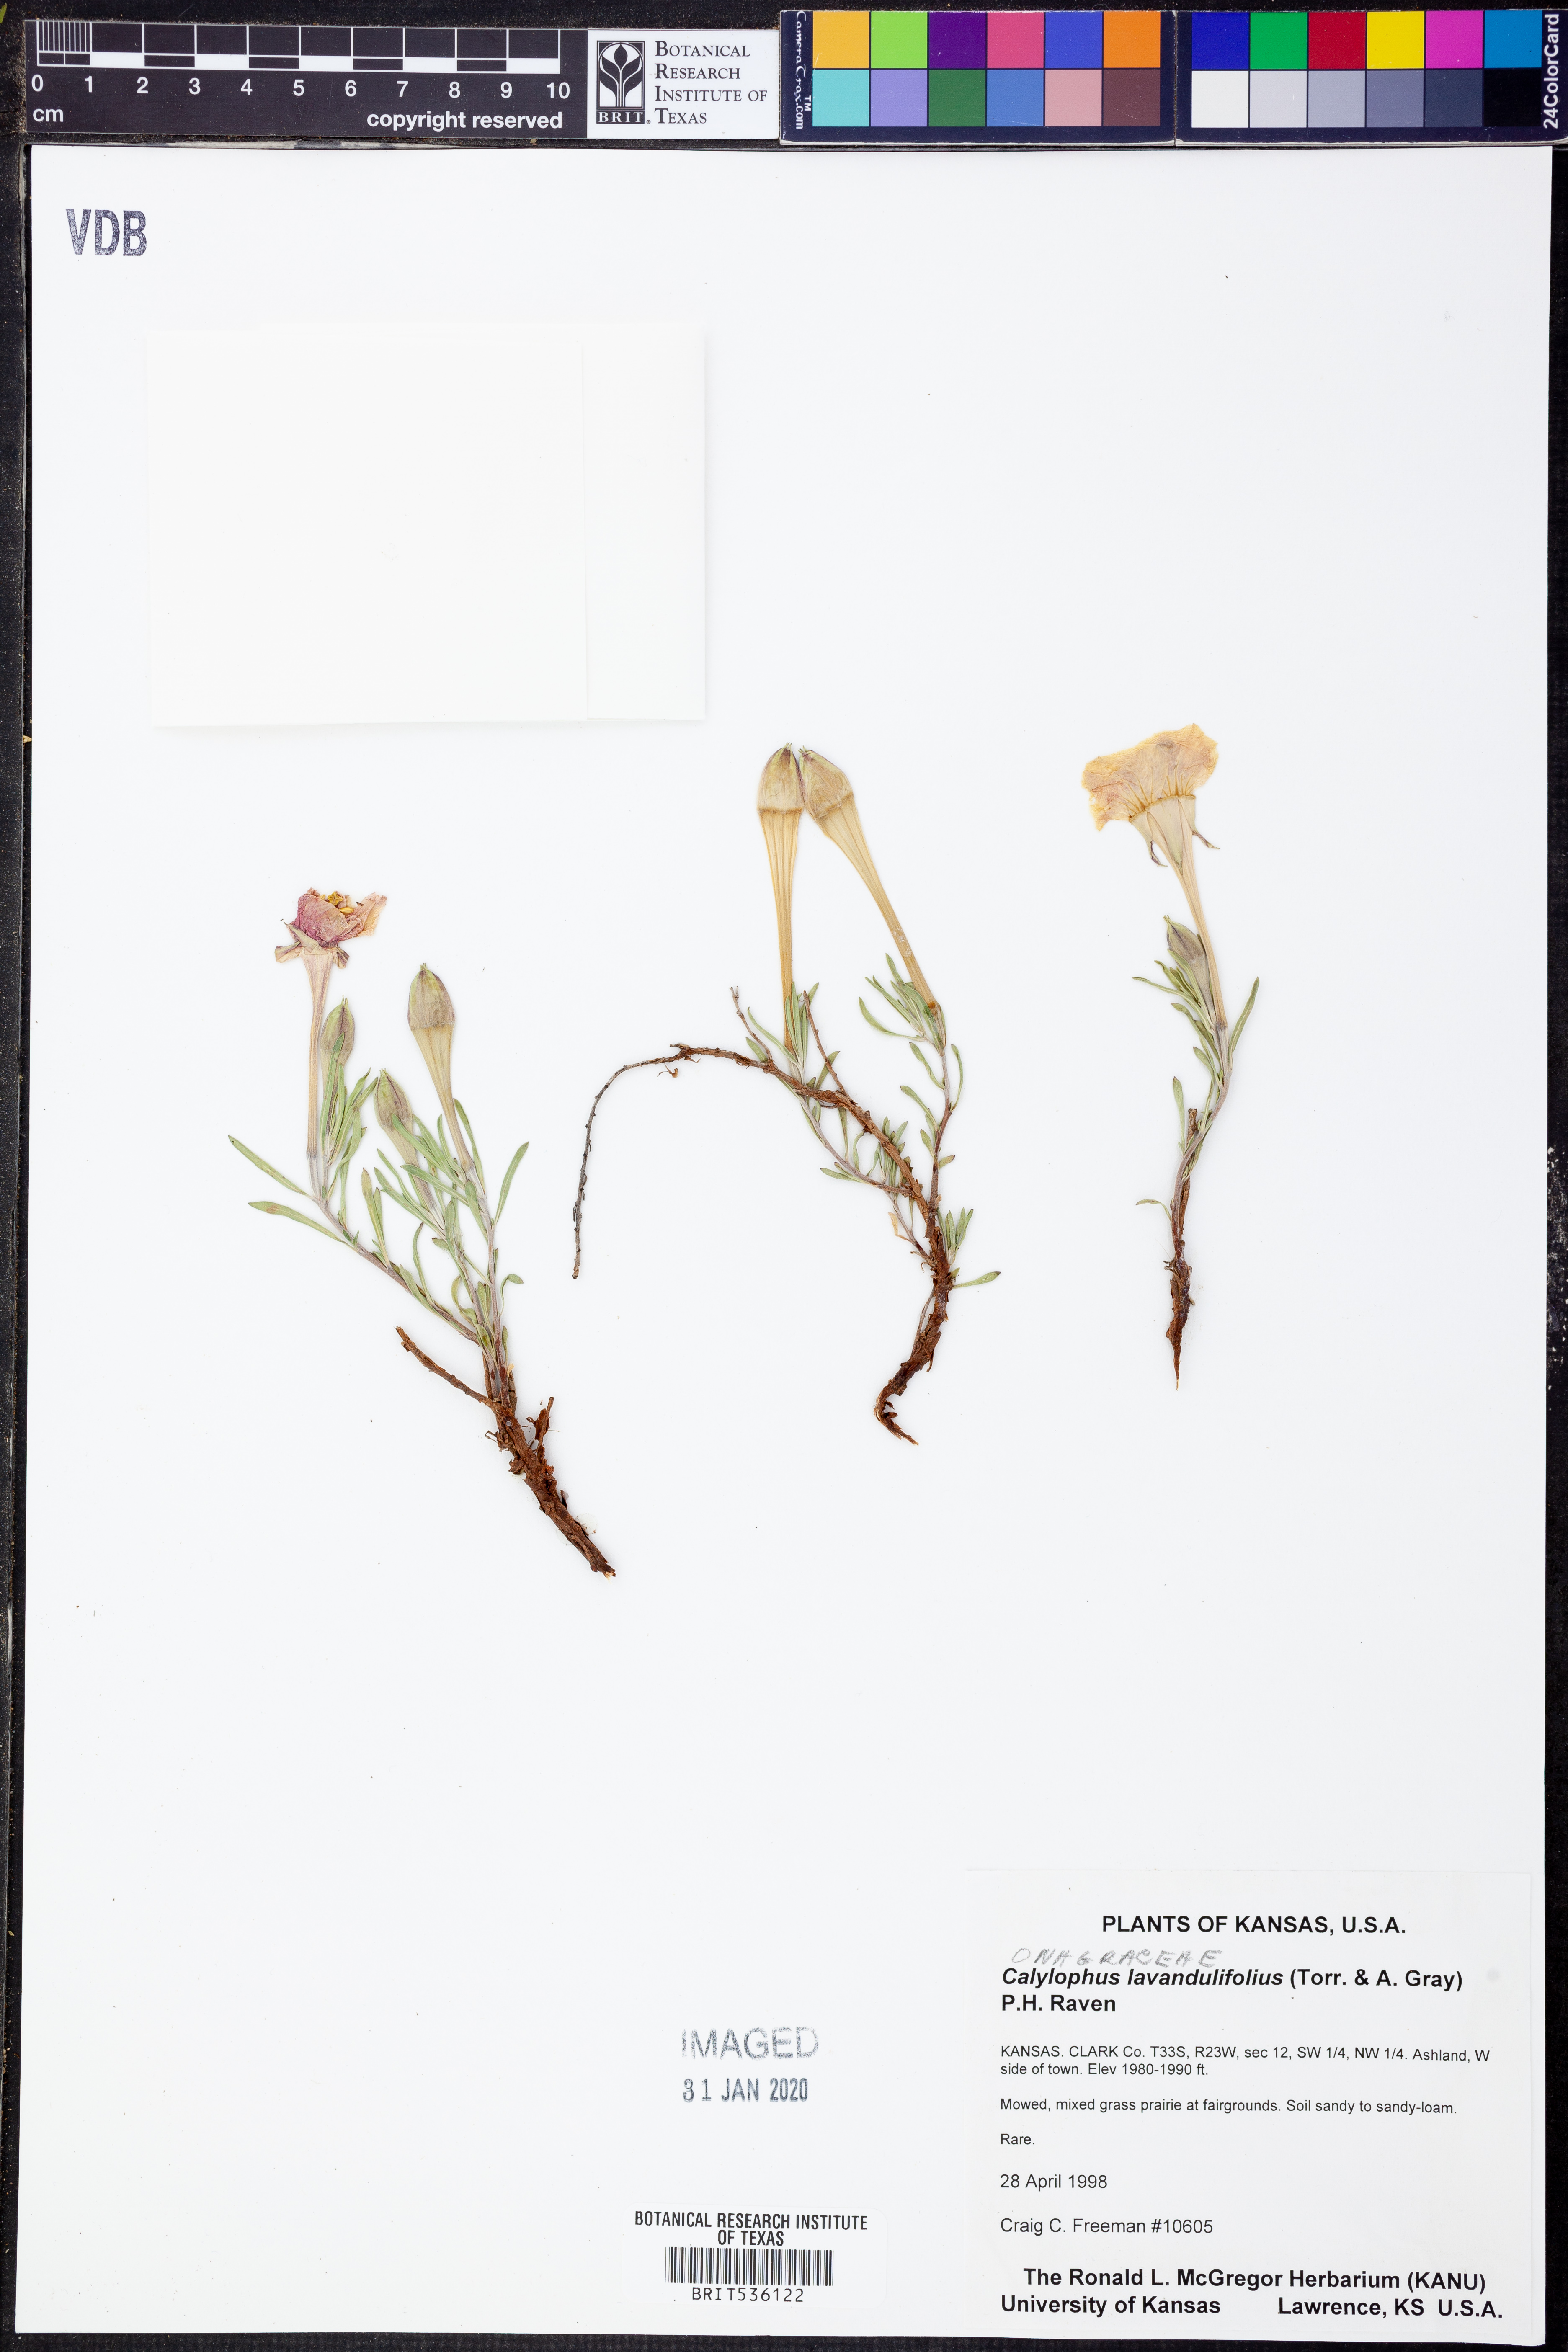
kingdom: Plantae
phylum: Tracheophyta
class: Magnoliopsida
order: Myrtales
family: Onagraceae
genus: Oenothera
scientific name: Oenothera lavandulifolia
